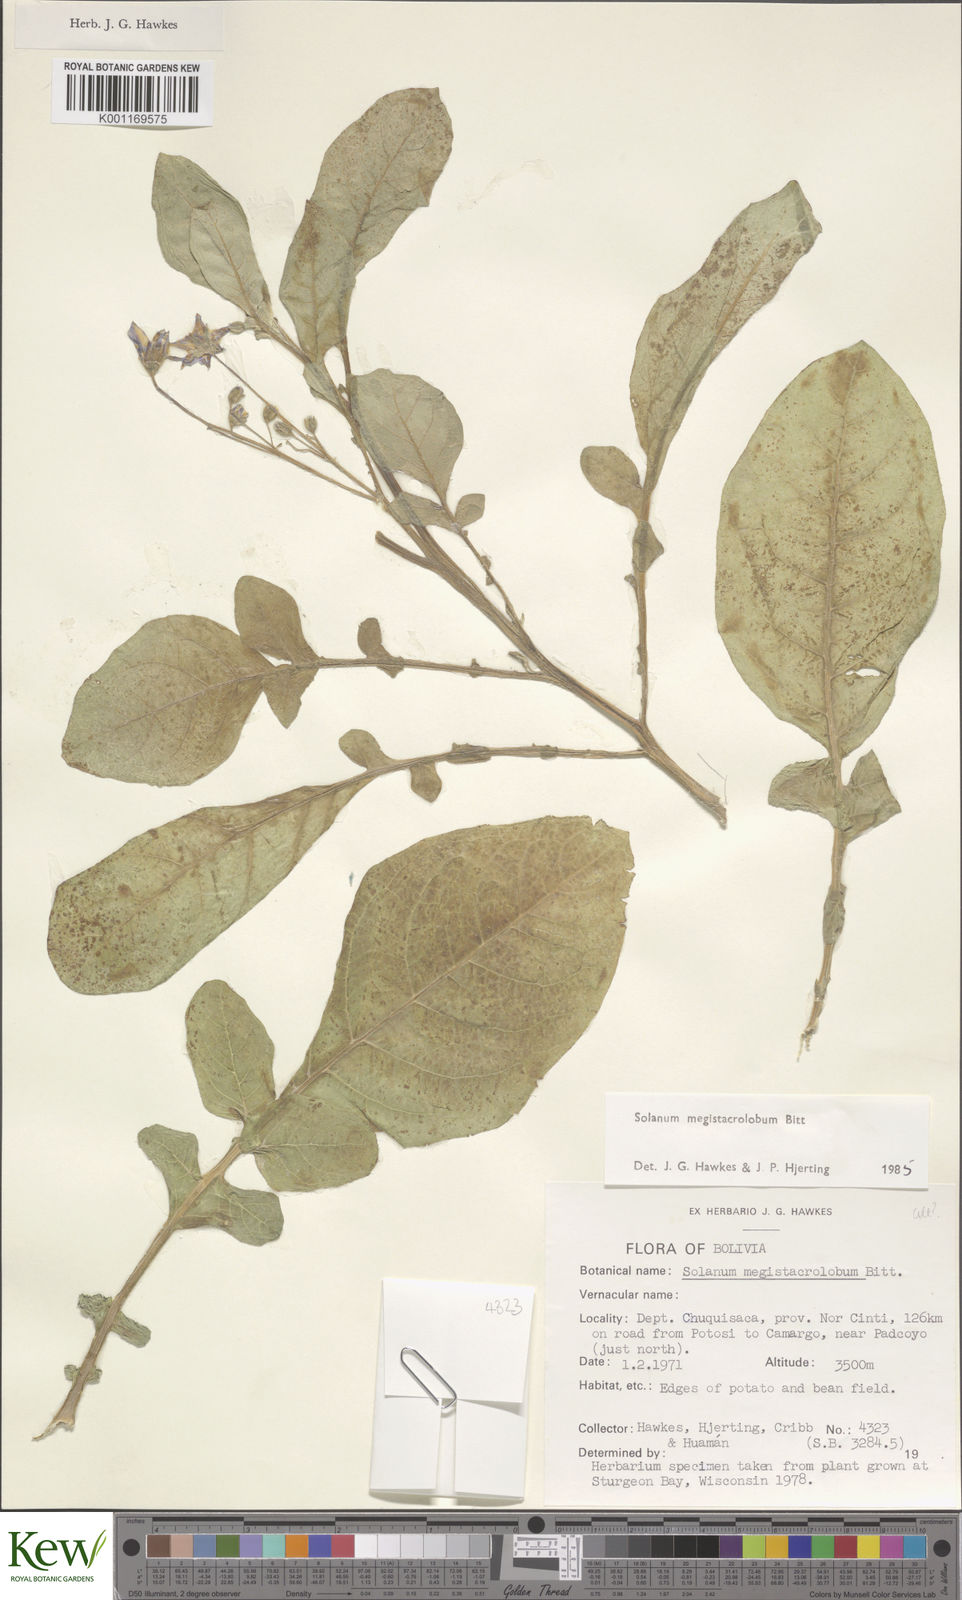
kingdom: Plantae
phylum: Tracheophyta
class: Magnoliopsida
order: Solanales
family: Solanaceae
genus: Solanum
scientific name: Solanum boliviense
